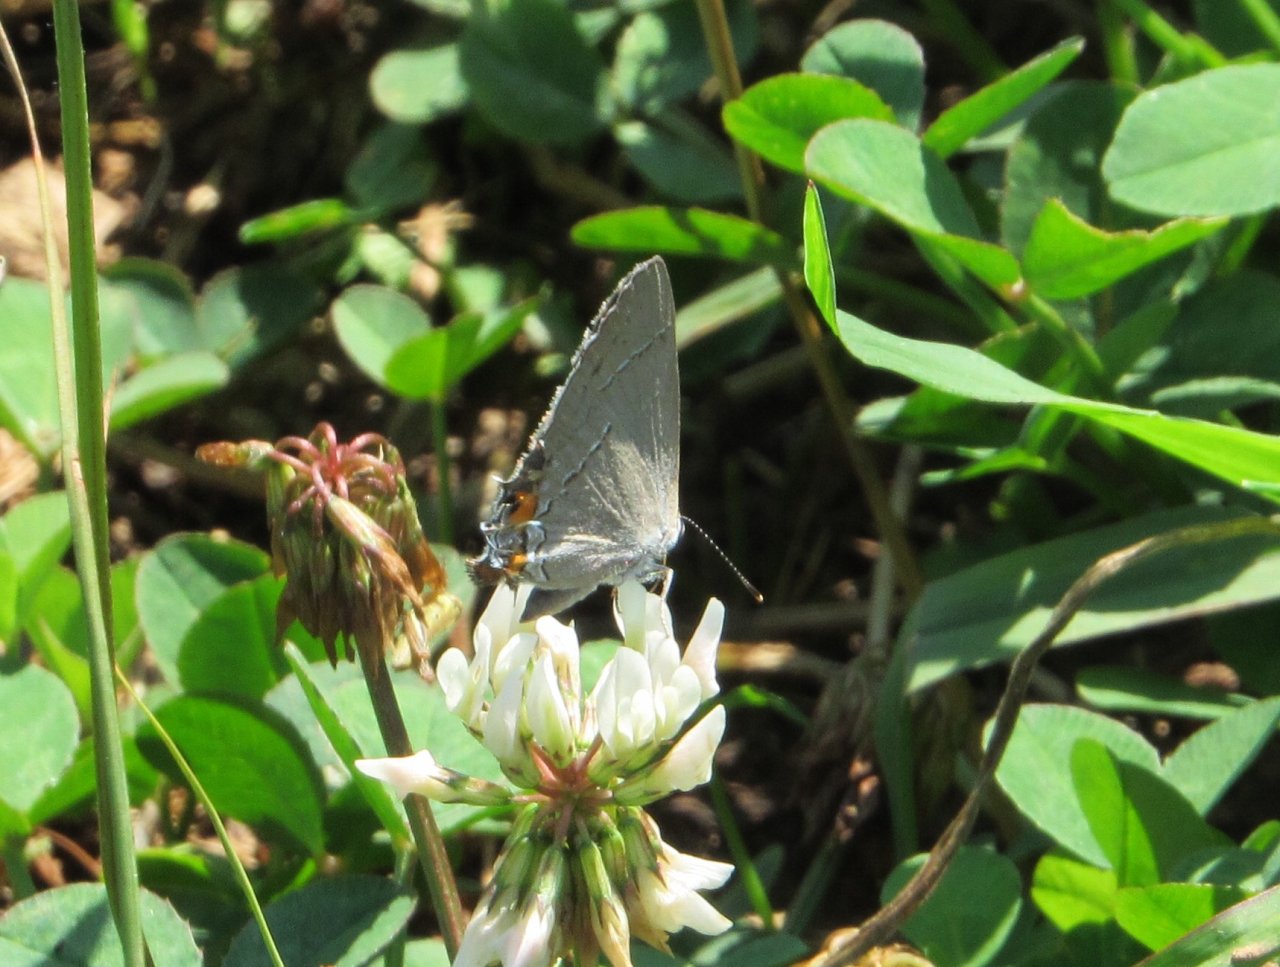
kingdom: Animalia
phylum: Arthropoda
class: Insecta
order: Lepidoptera
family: Lycaenidae
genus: Strymon
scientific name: Strymon melinus
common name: Gray Hairstreak
